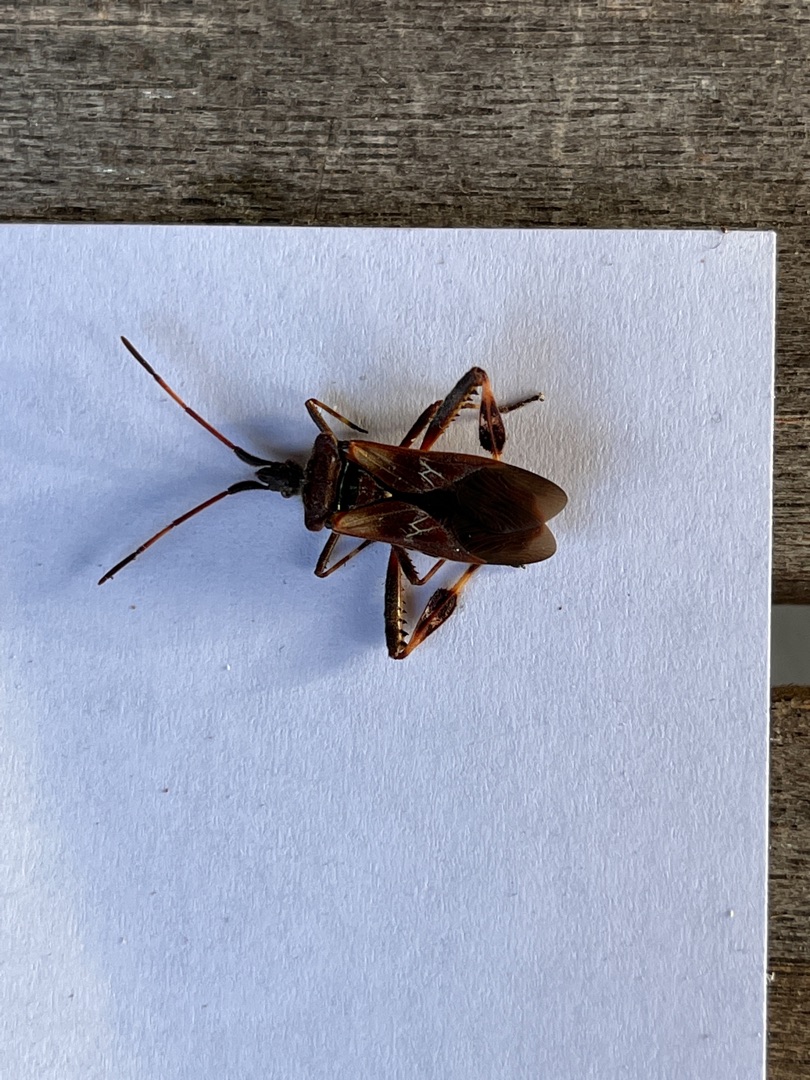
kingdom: Animalia
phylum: Arthropoda
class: Insecta
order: Hemiptera
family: Coreidae
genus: Leptoglossus
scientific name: Leptoglossus occidentalis
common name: Amerikansk fyrretæge
